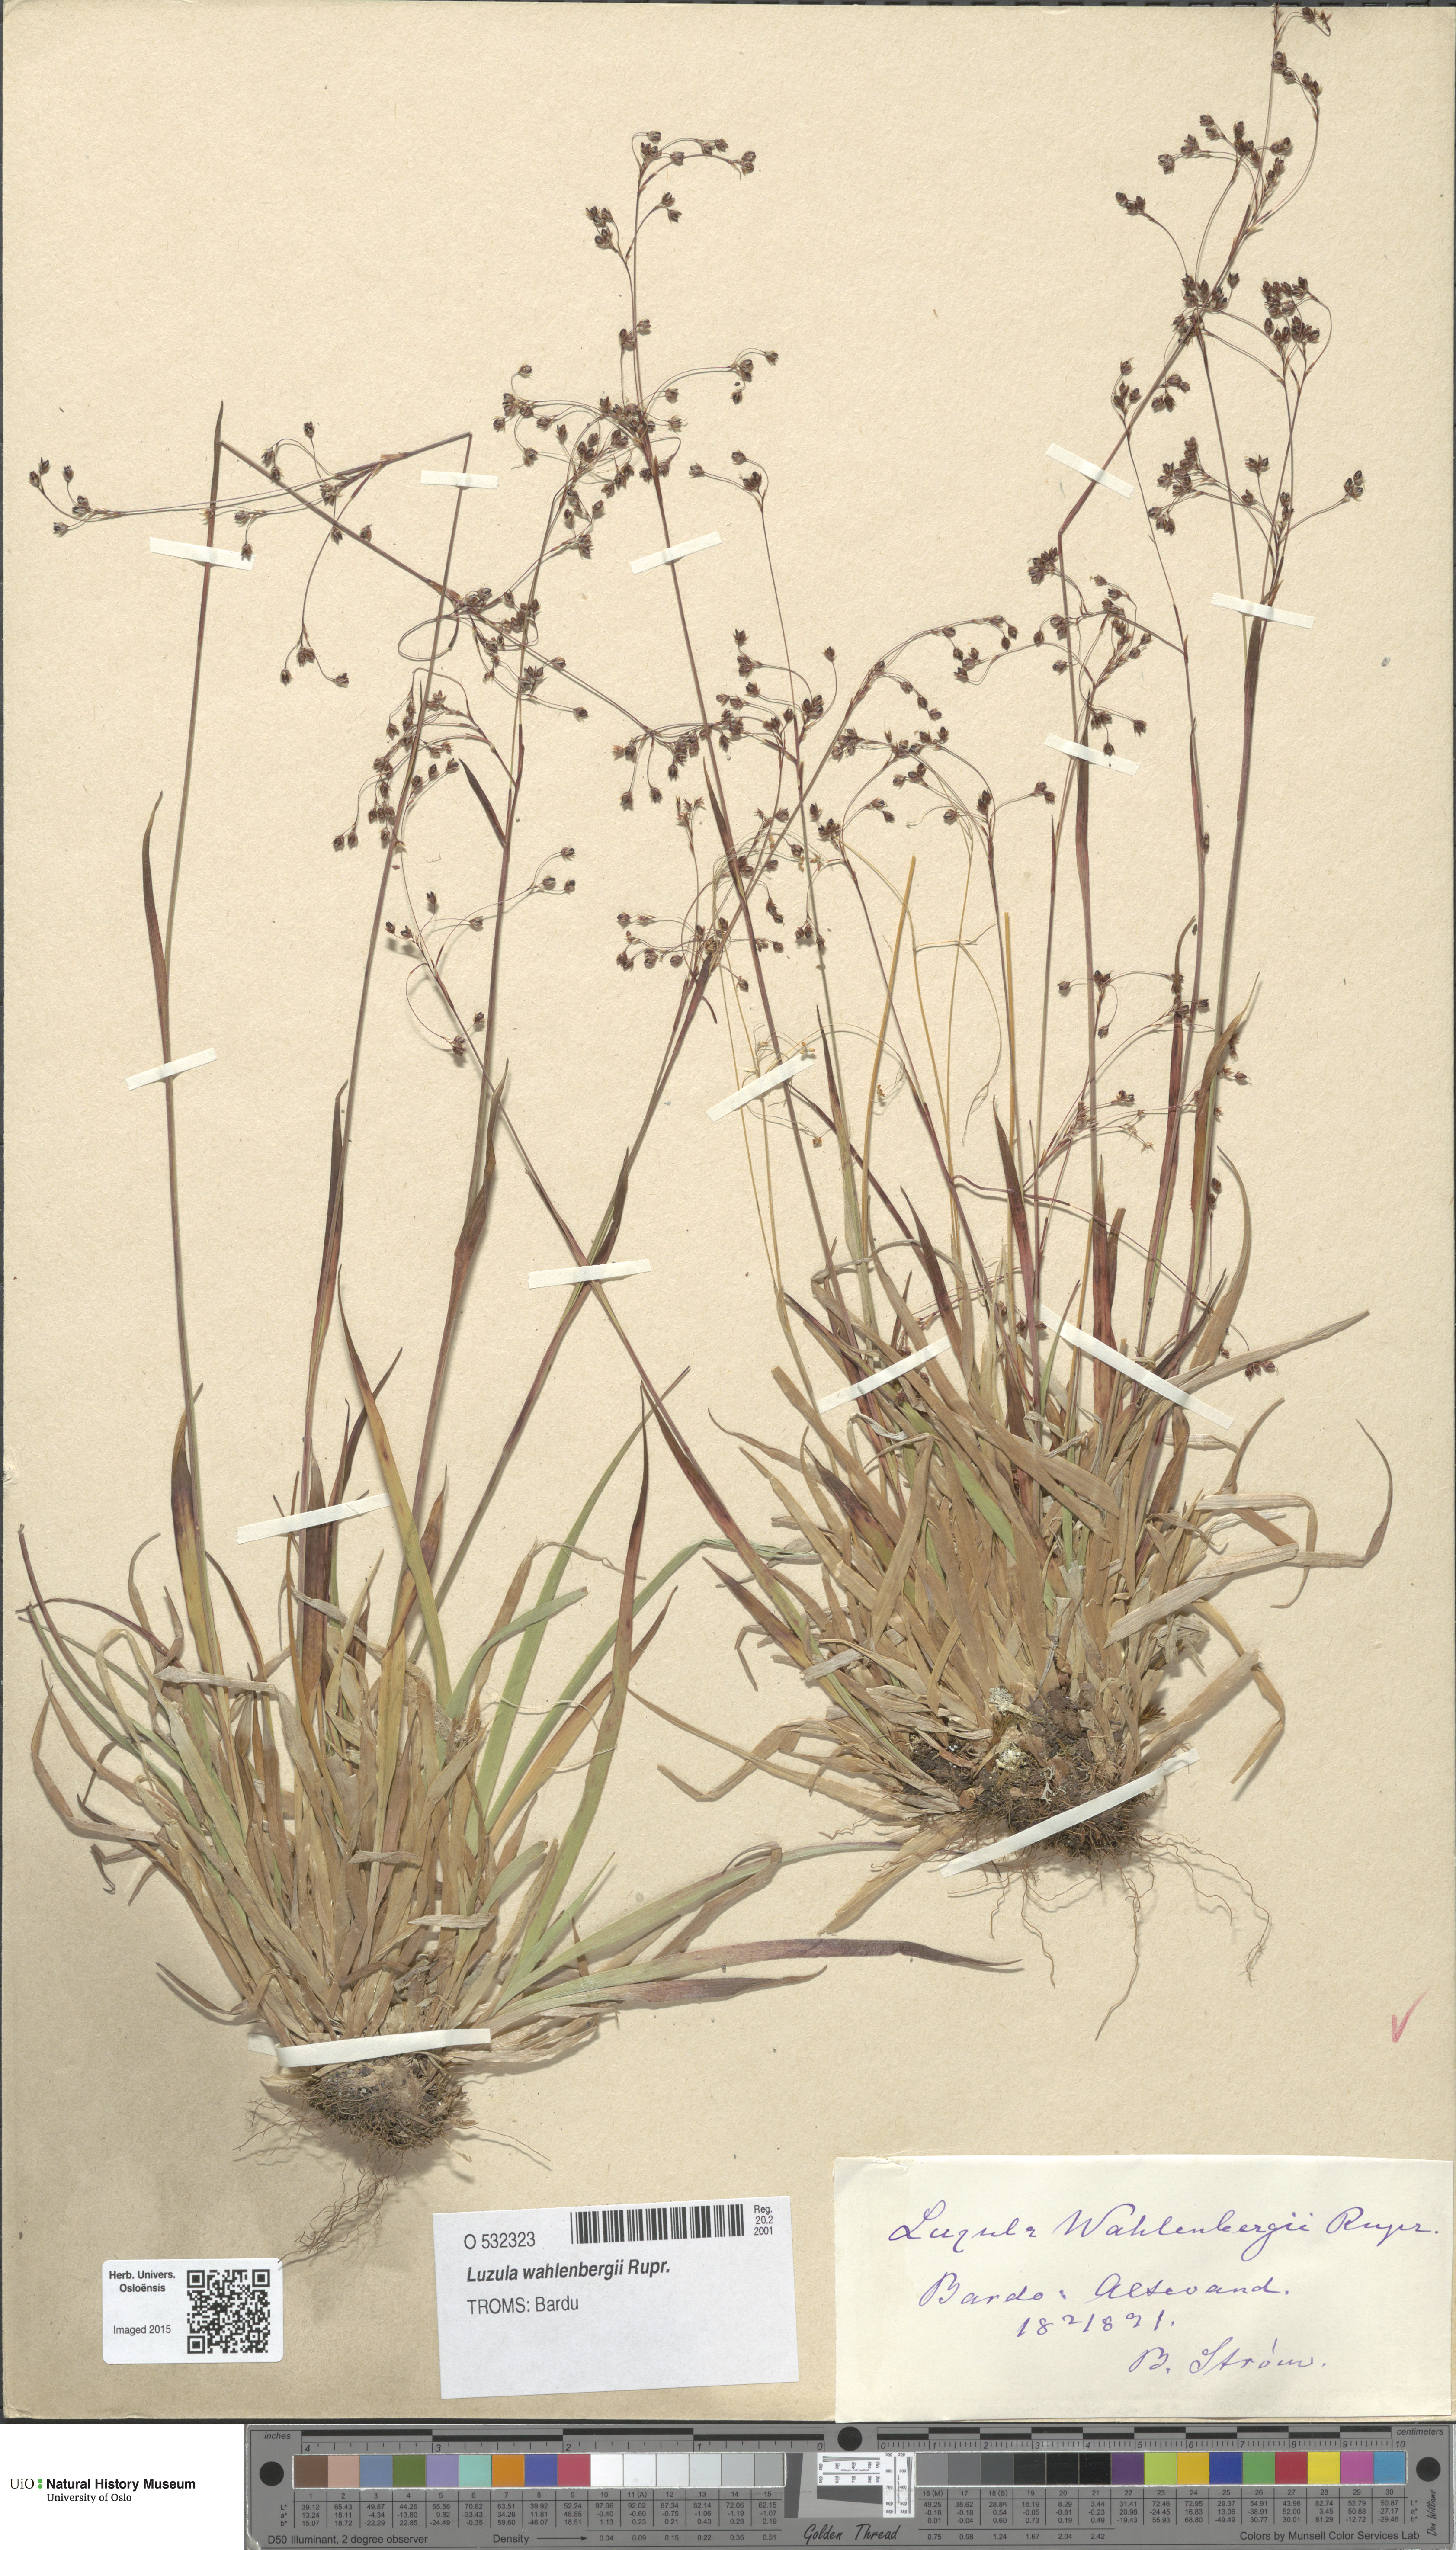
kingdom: Plantae
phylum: Tracheophyta
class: Liliopsida
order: Poales
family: Juncaceae
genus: Luzula
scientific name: Luzula wahlenbergii
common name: Wahlenberg's wood-rush
